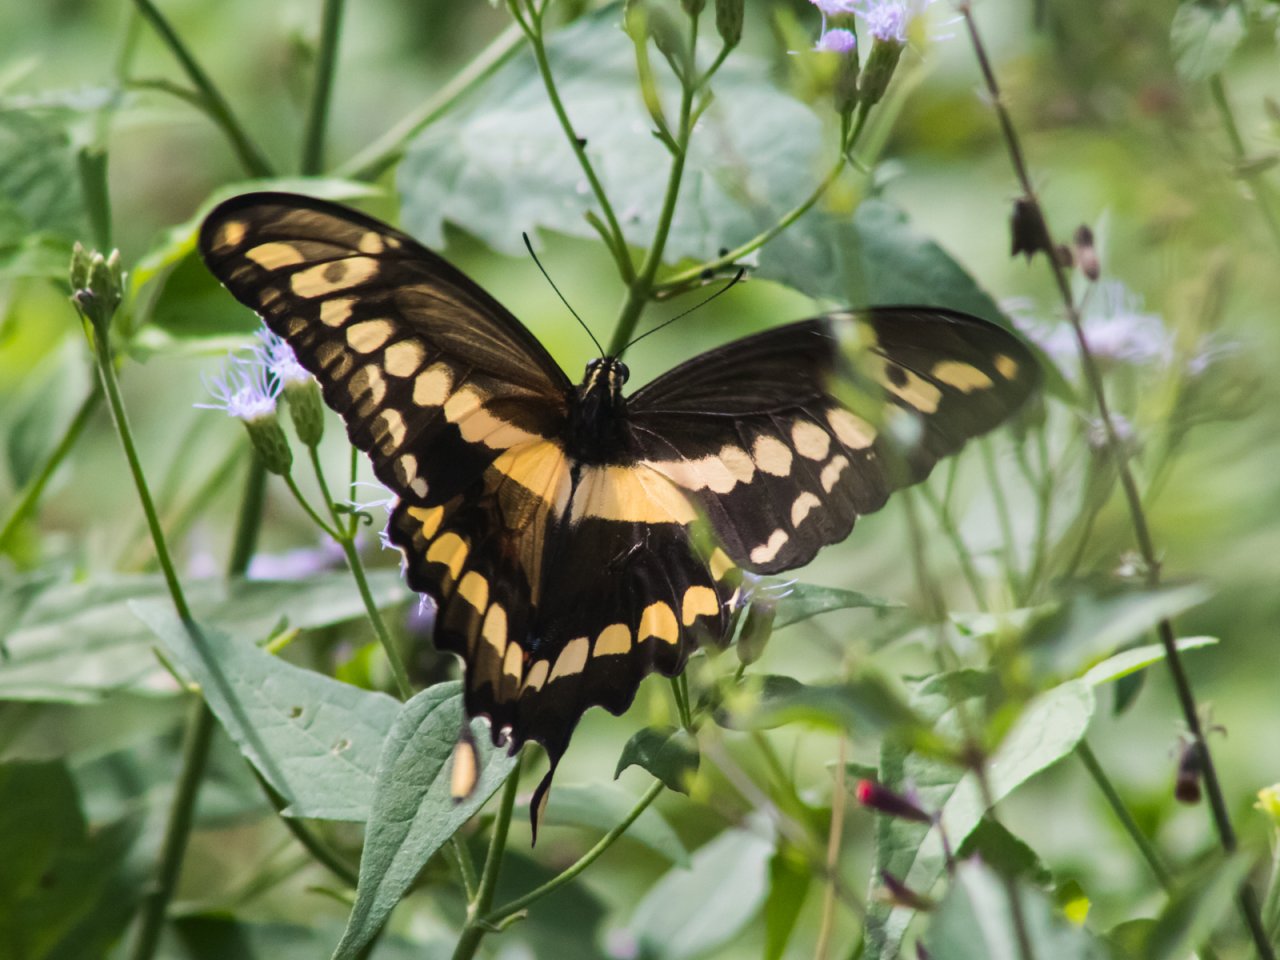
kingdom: Animalia
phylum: Arthropoda
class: Insecta
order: Lepidoptera
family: Papilionidae
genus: Papilio
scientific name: Papilio rumiko
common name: Western Giant Swallowtail
